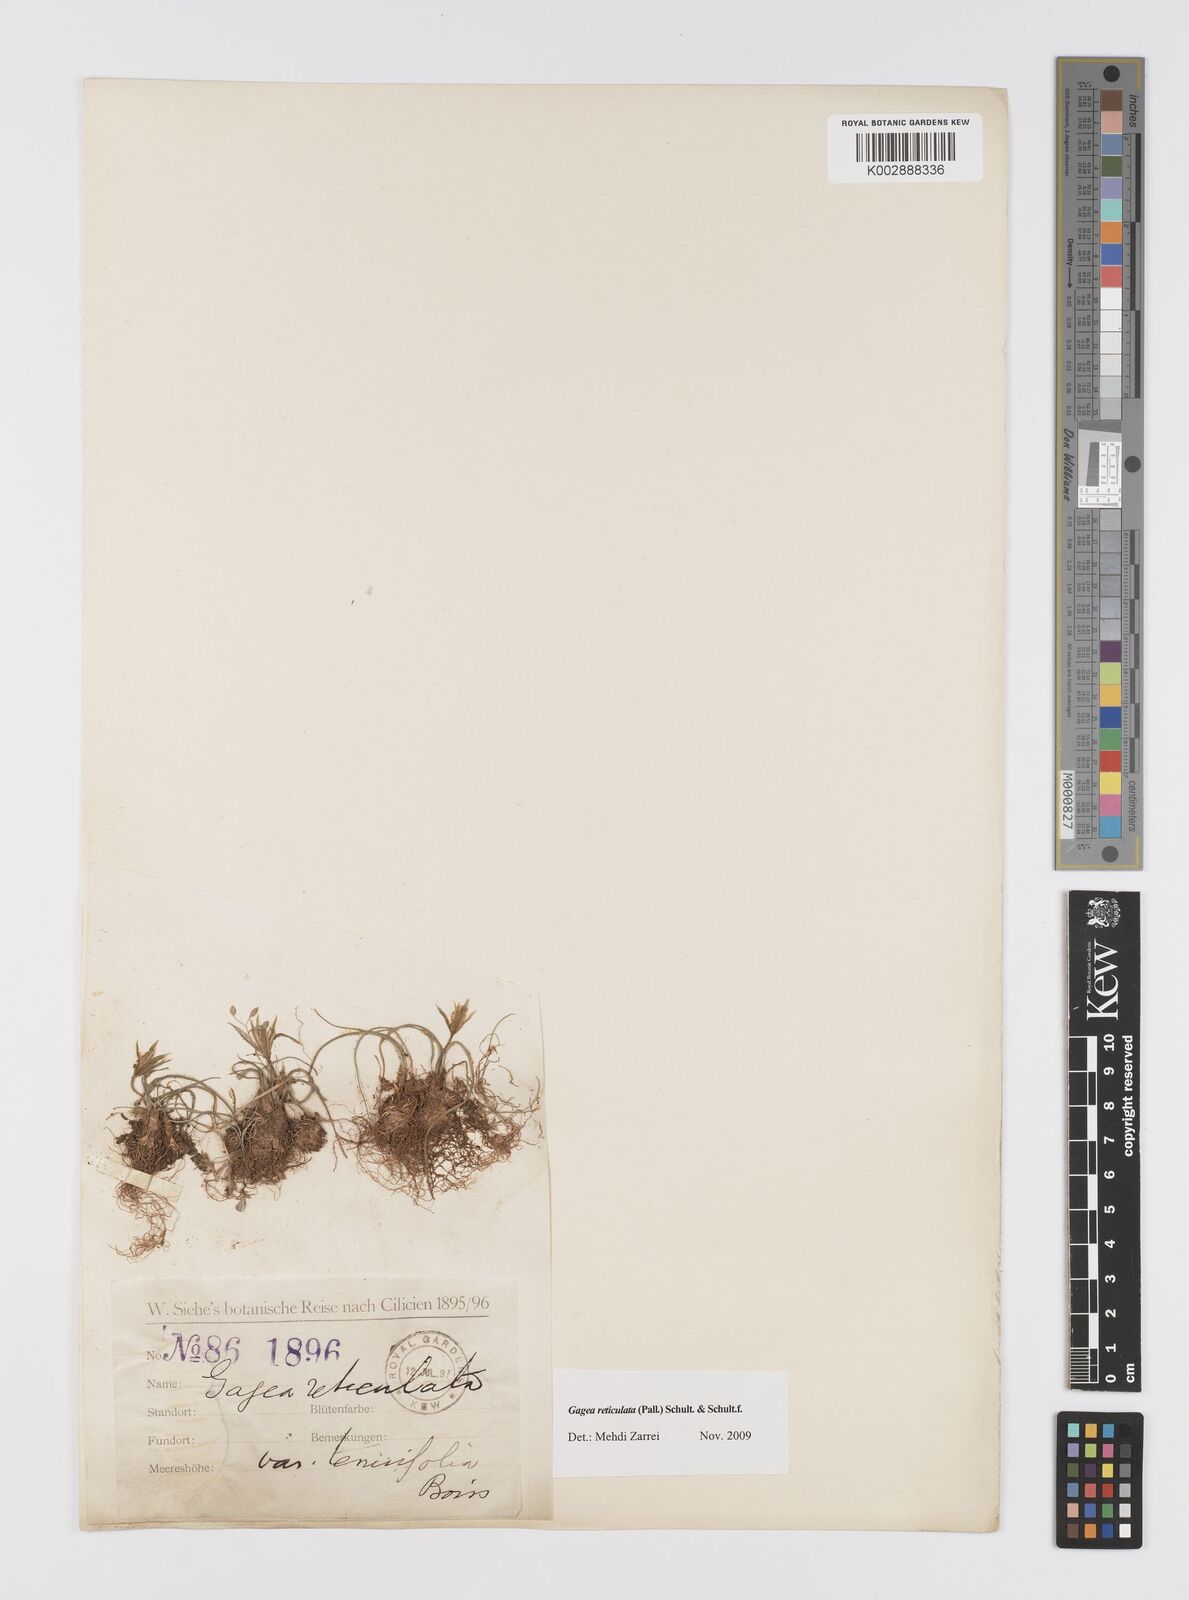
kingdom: Plantae
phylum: Tracheophyta
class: Liliopsida
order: Liliales
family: Liliaceae
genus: Gagea
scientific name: Gagea reticulata
